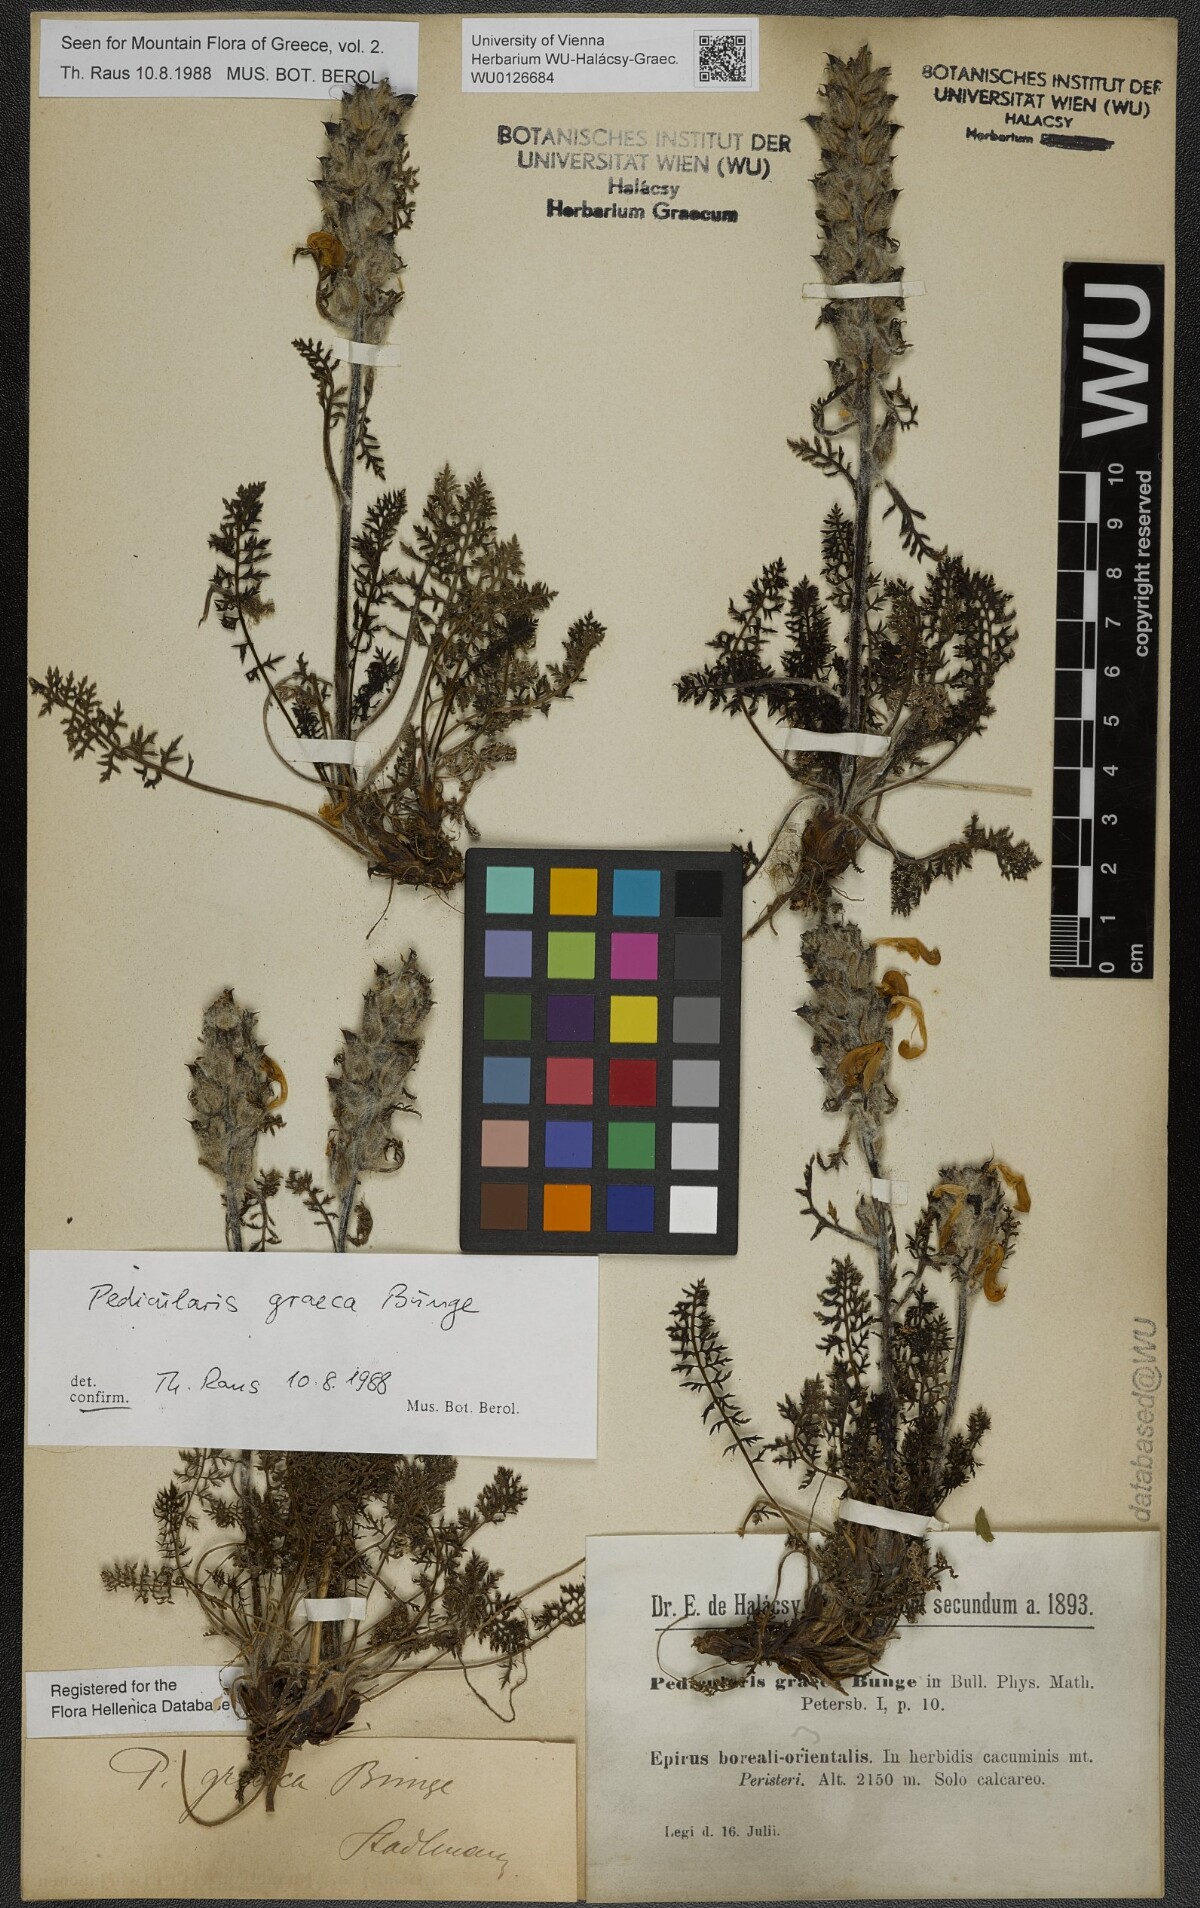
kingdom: Plantae
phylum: Tracheophyta
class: Magnoliopsida
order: Lamiales
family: Orobanchaceae
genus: Pedicularis
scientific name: Pedicularis graeca
